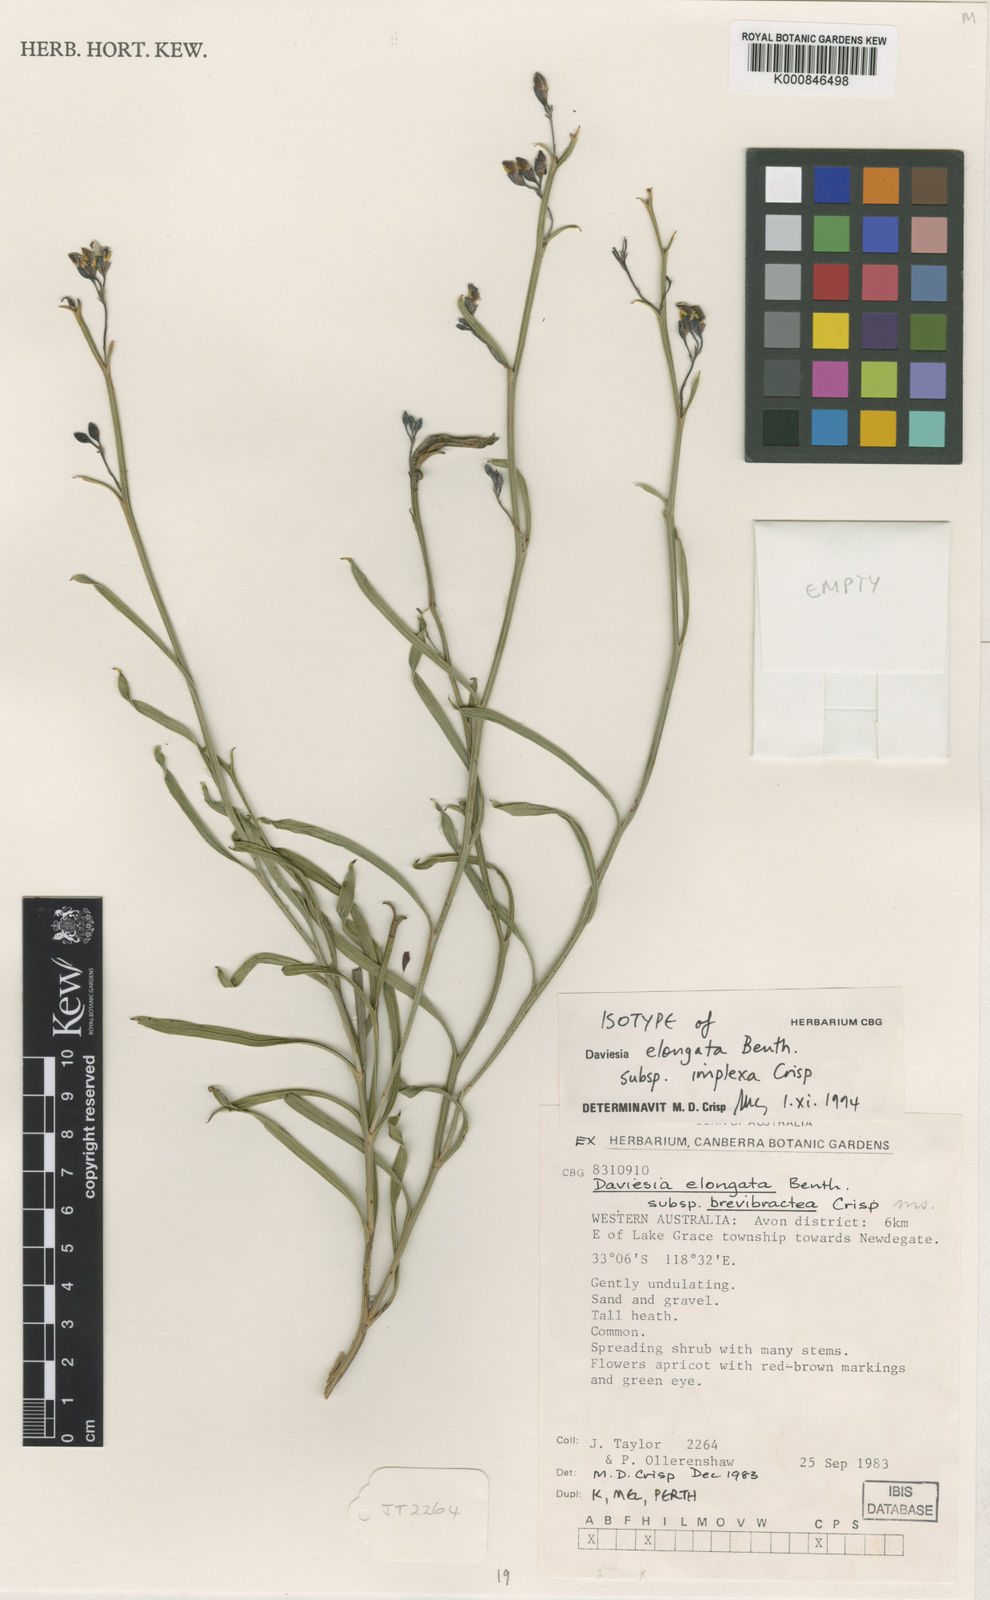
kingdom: Plantae
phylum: Tracheophyta
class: Magnoliopsida
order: Fabales
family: Fabaceae
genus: Daviesia
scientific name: Daviesia implexa
